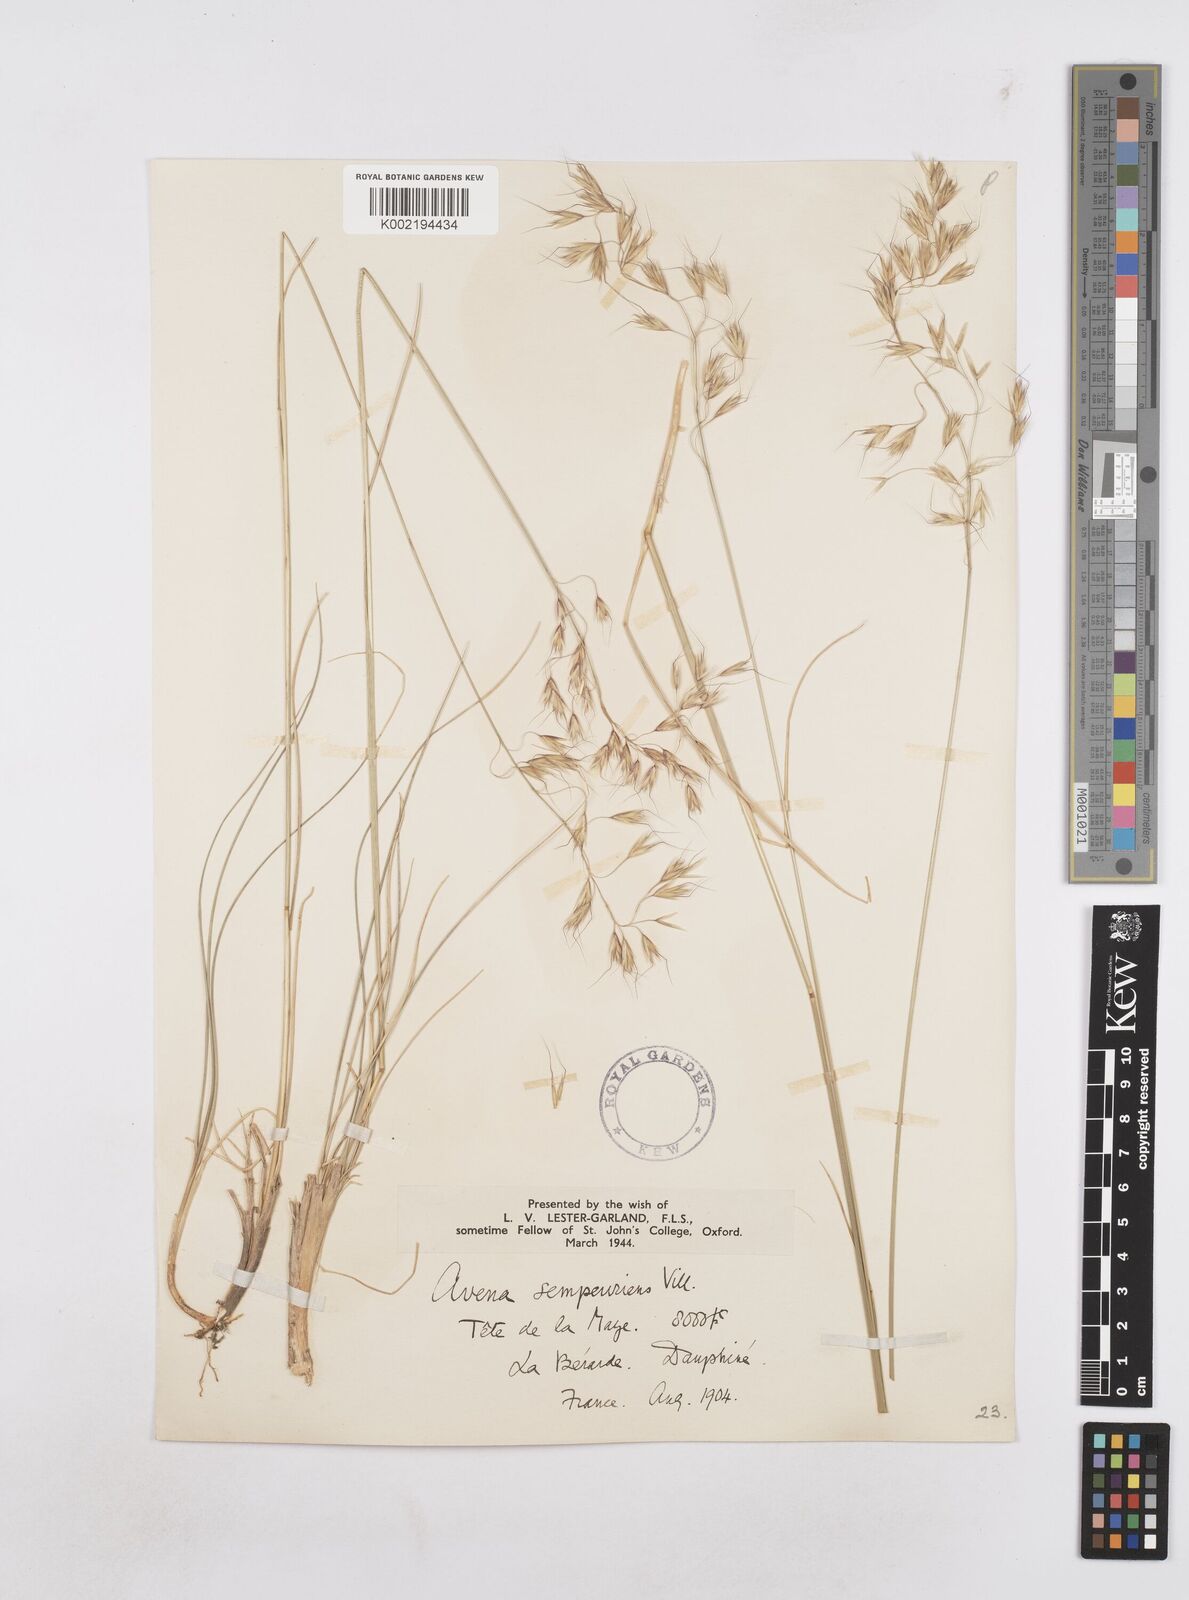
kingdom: Plantae
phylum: Tracheophyta
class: Liliopsida
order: Poales
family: Poaceae
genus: Helictotrichon
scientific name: Helictotrichon sempervirens
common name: Blue oat-grass
